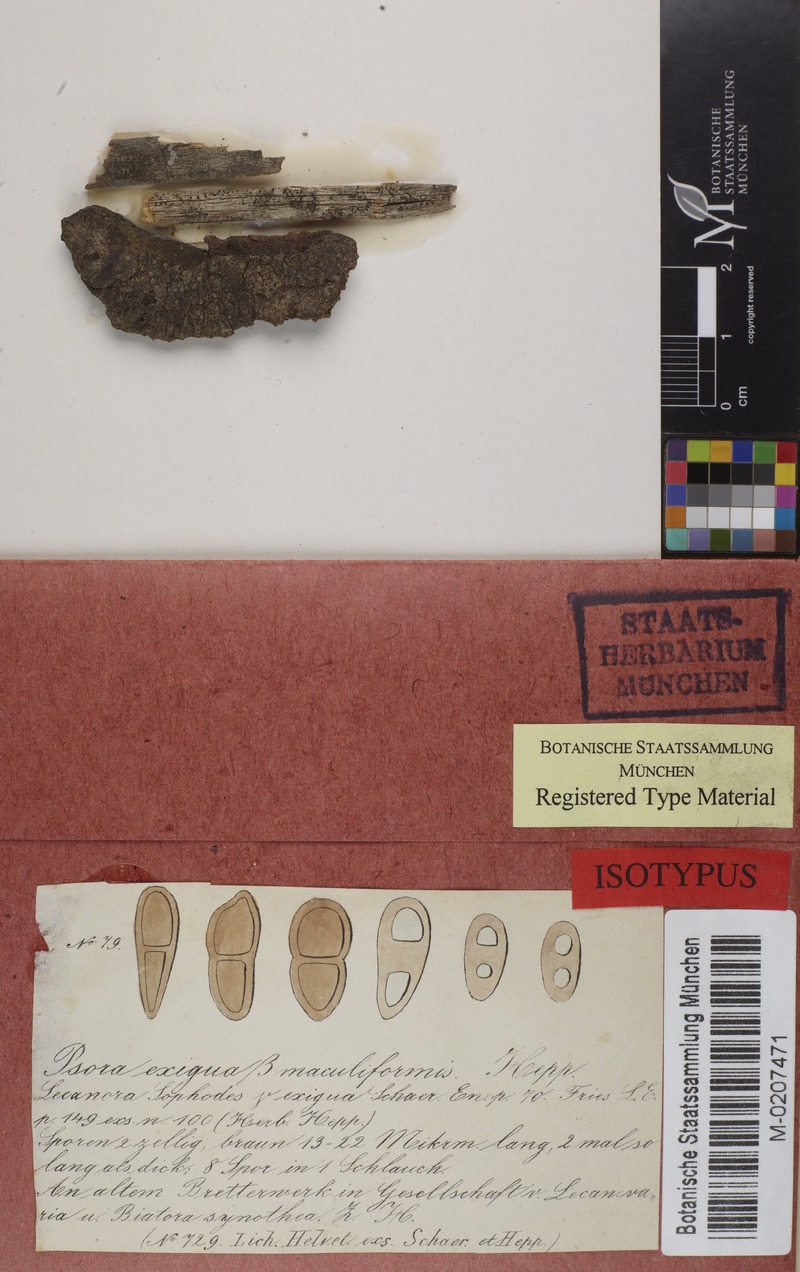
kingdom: Fungi
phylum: Ascomycota
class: Lecanoromycetes
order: Caliciales
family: Physciaceae
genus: Rinodina
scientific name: Rinodina archaea
